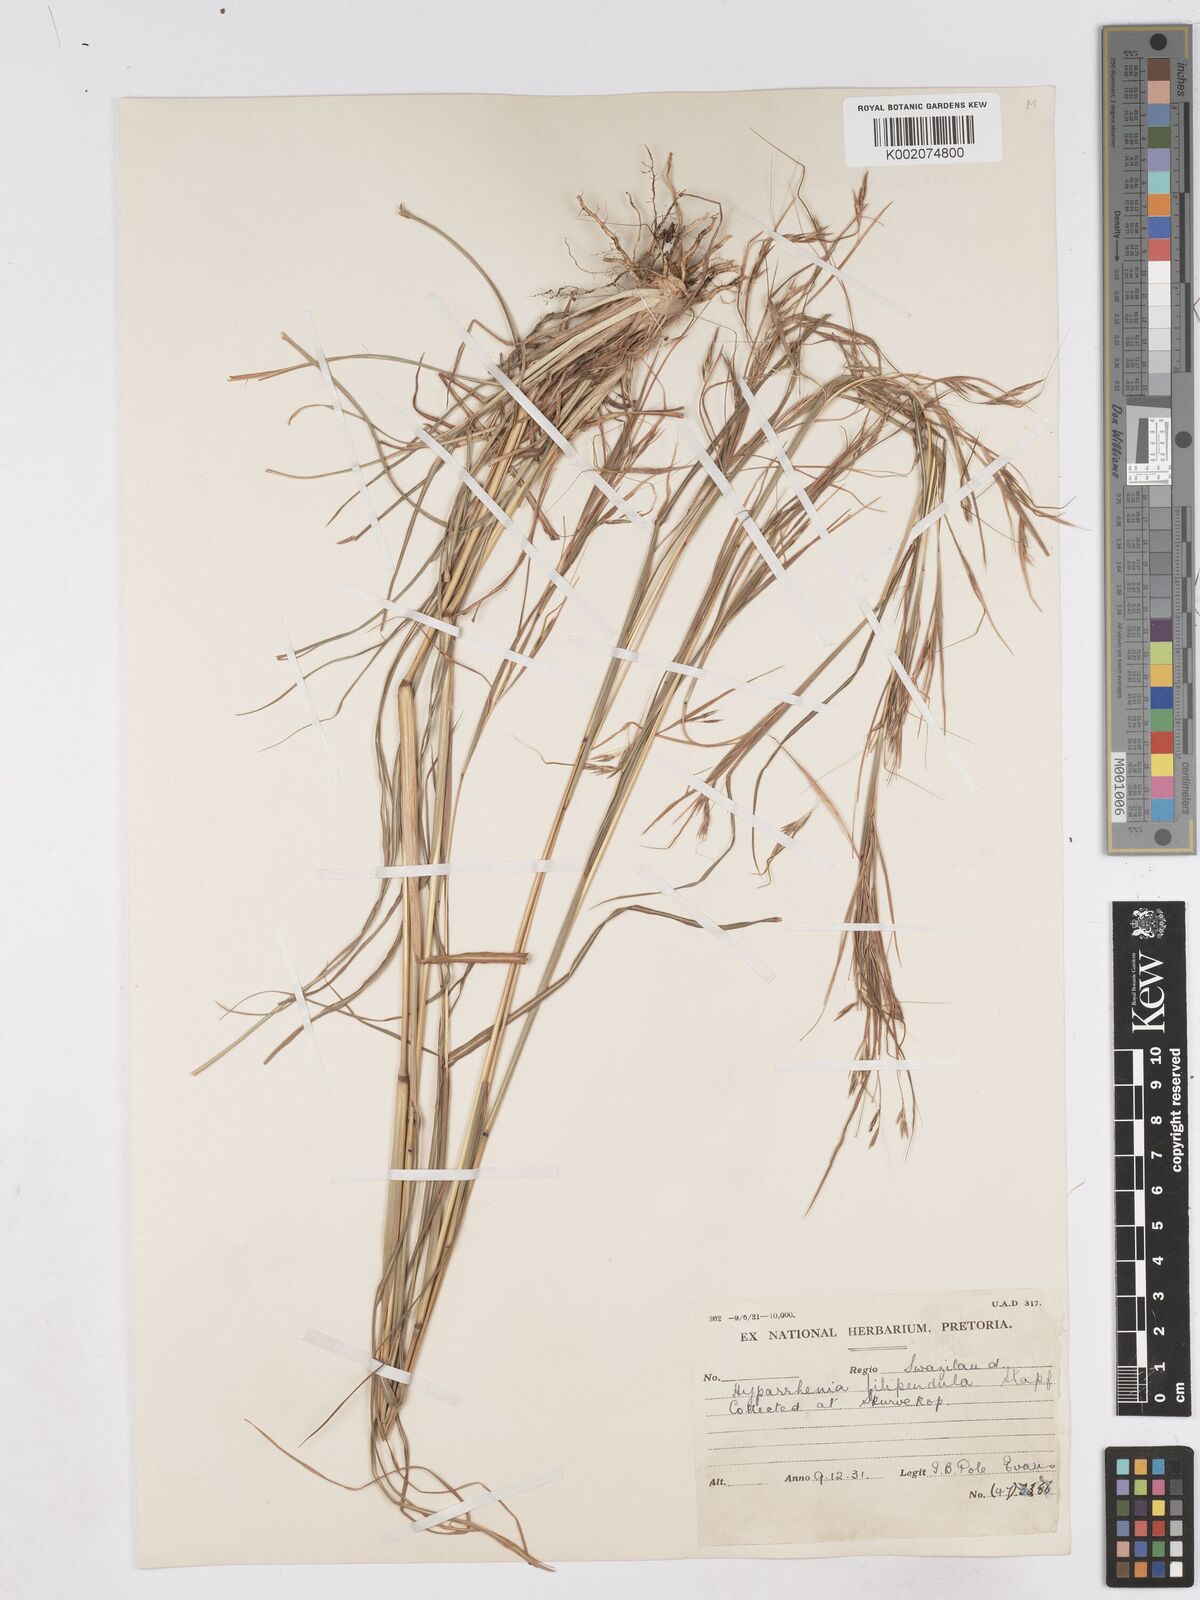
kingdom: Plantae
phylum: Tracheophyta
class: Liliopsida
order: Poales
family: Poaceae
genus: Hyparrhenia
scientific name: Hyparrhenia filipendula
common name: Tambookie grass
